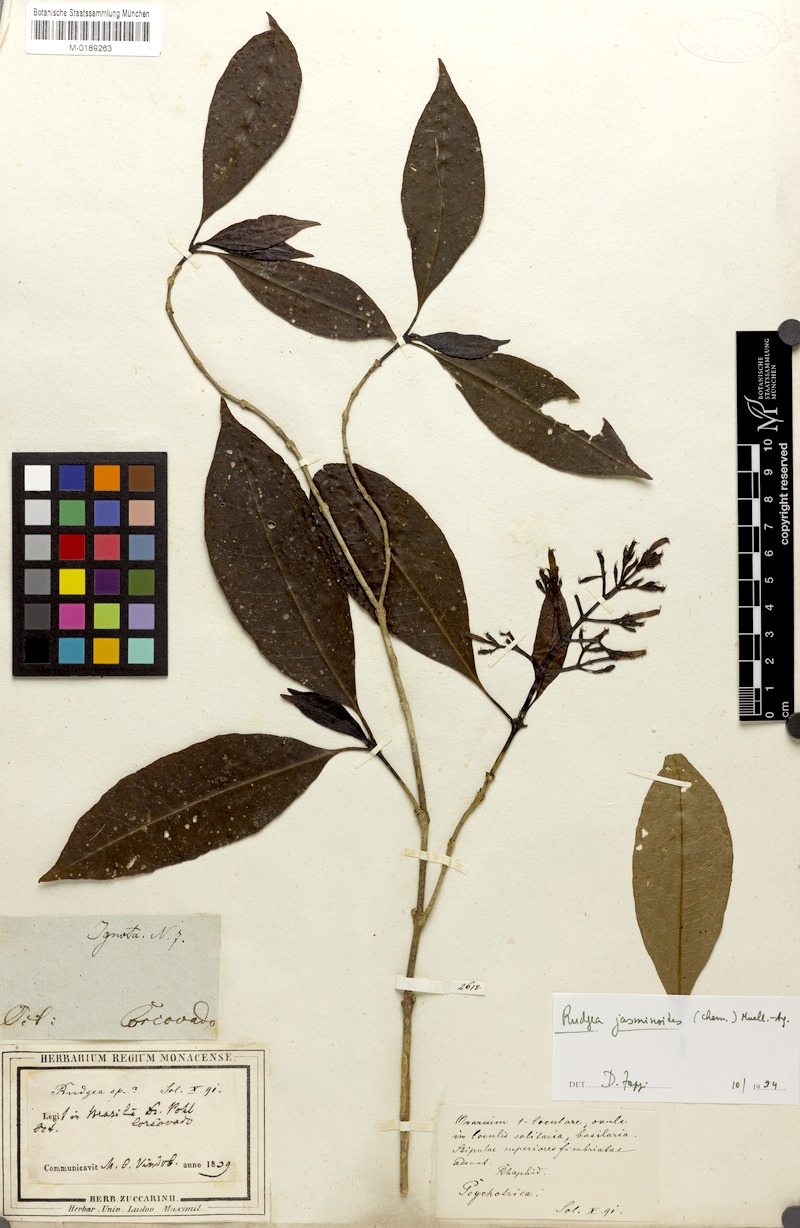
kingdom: Plantae
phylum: Tracheophyta
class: Magnoliopsida
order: Gentianales
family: Rubiaceae
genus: Rudgea
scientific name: Rudgea jasminoides
